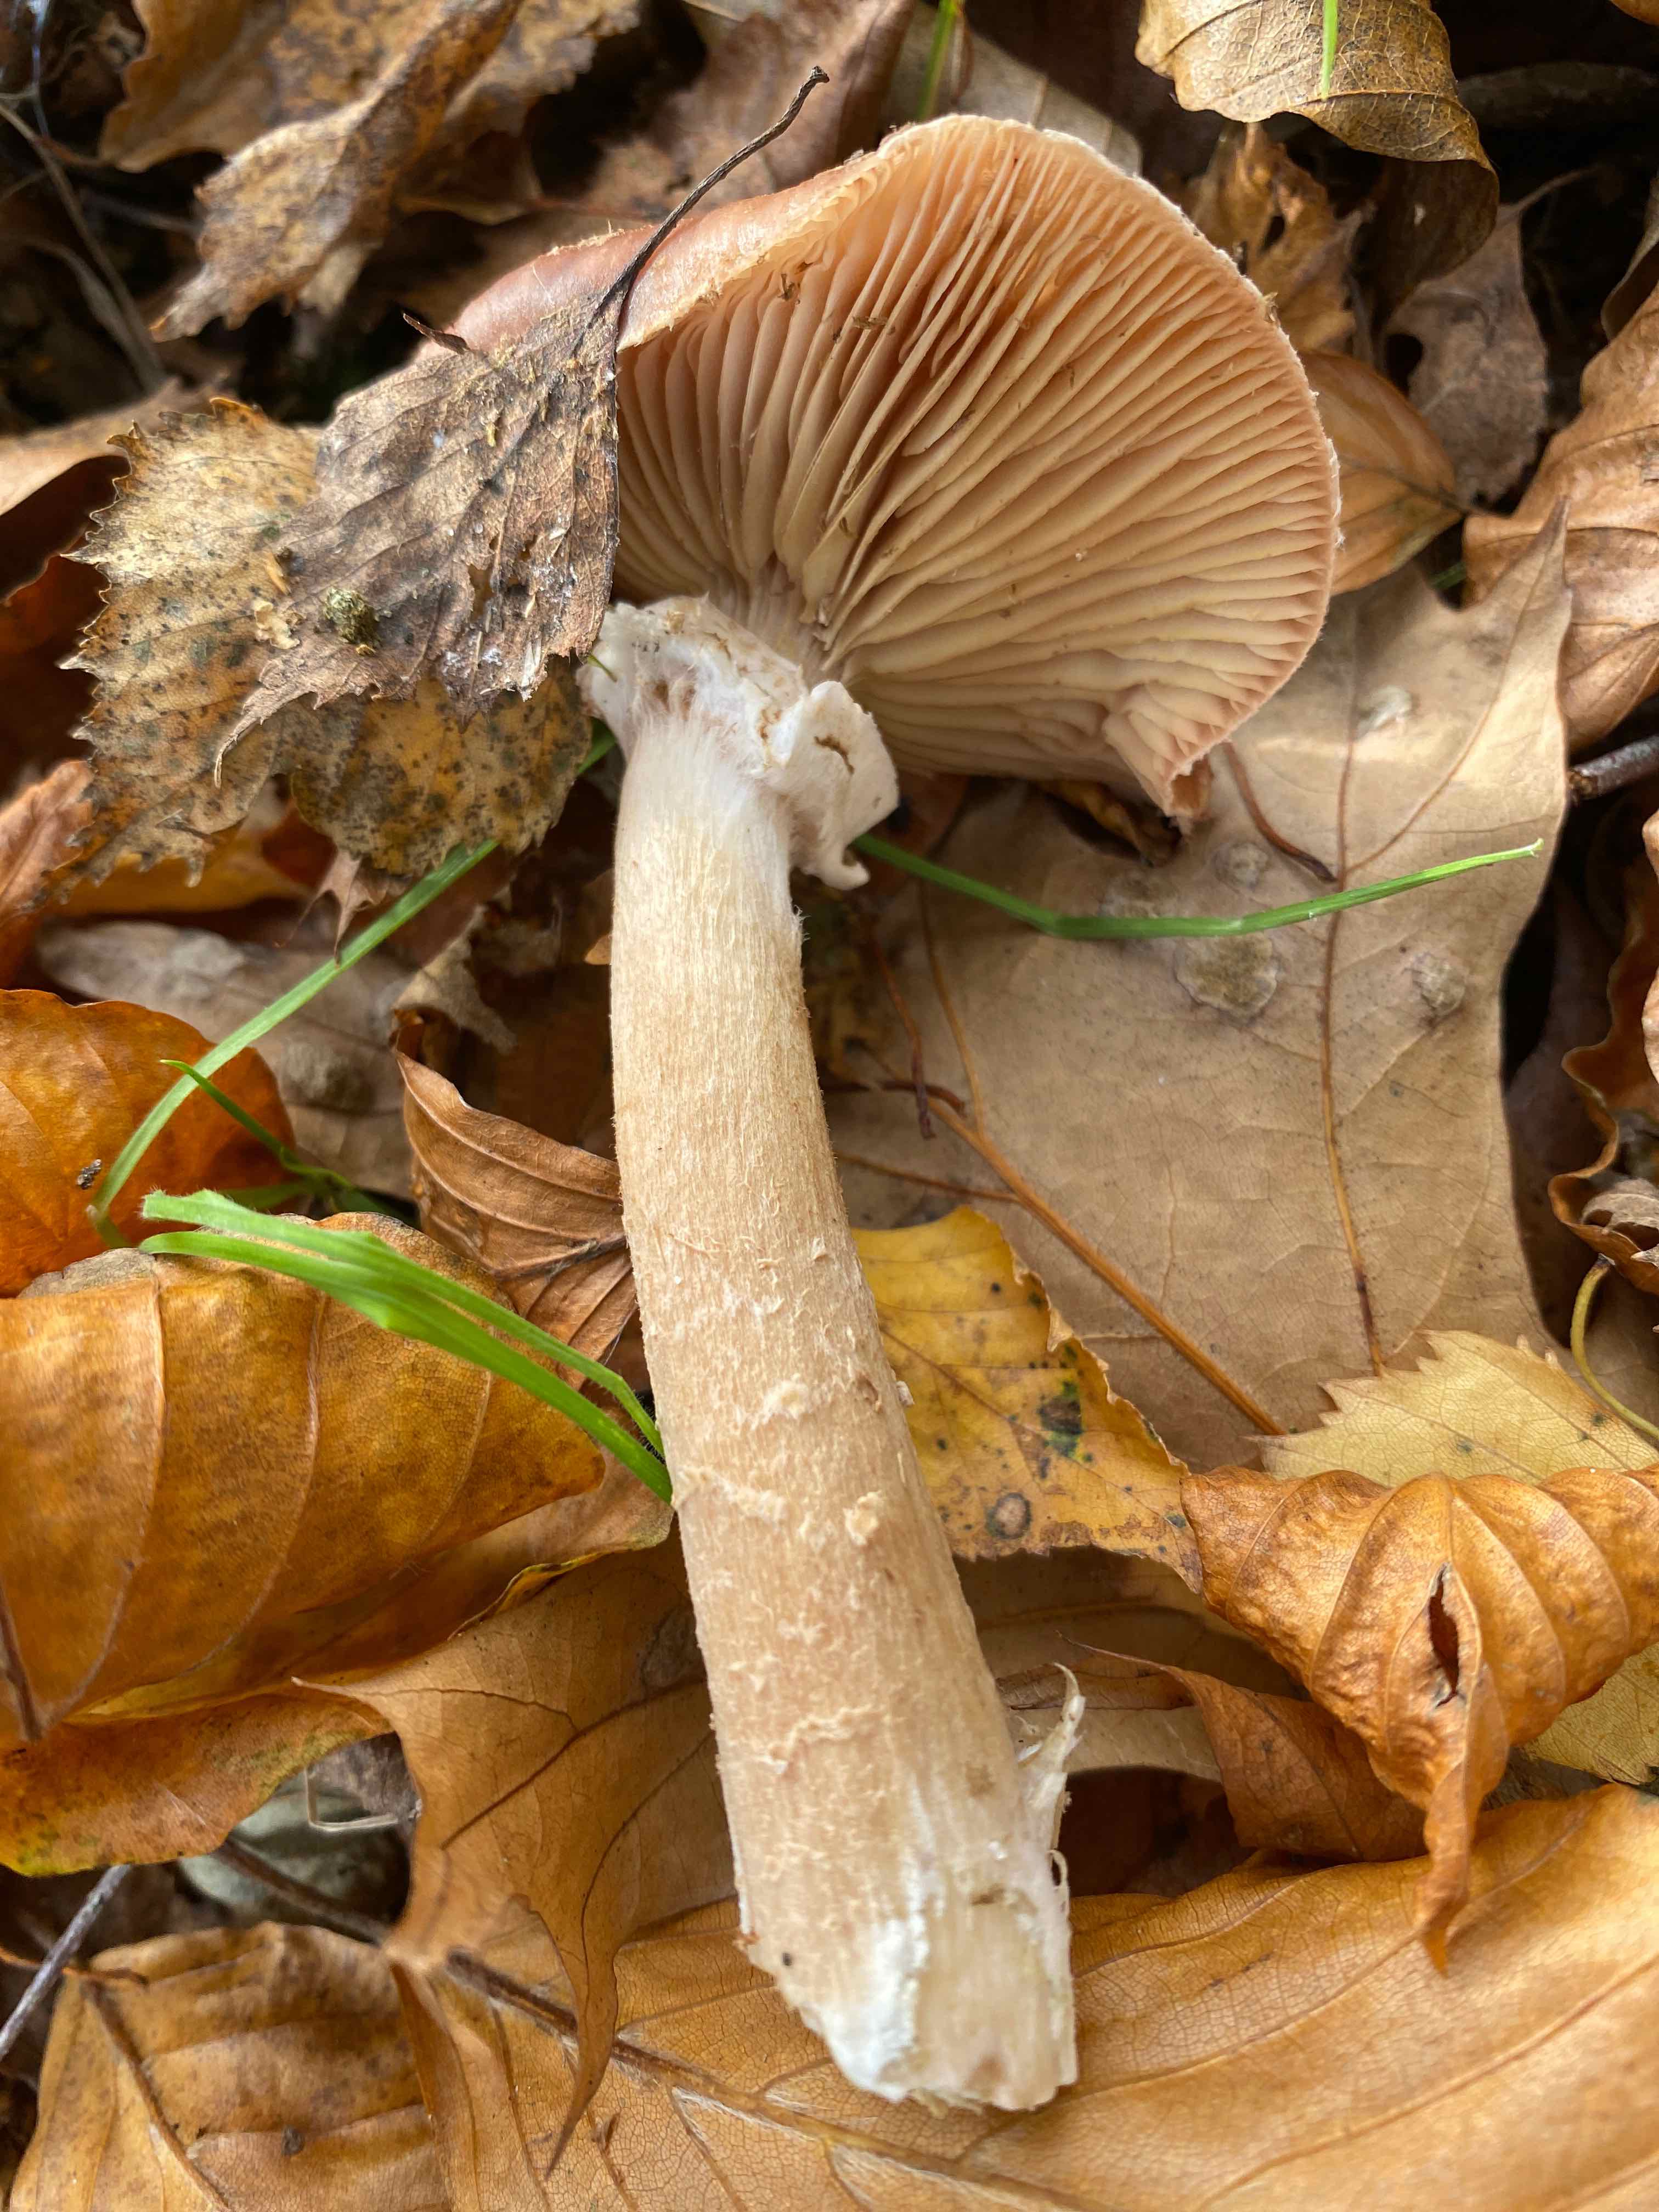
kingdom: Fungi
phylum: Basidiomycota
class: Agaricomycetes
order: Agaricales
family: Physalacriaceae
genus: Armillaria
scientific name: Armillaria
